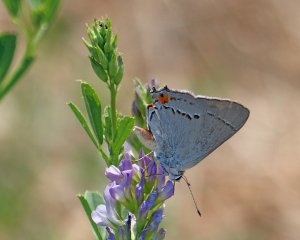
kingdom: Animalia
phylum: Arthropoda
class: Insecta
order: Lepidoptera
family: Lycaenidae
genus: Strymon
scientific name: Strymon melinus
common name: Gray Hairstreak
